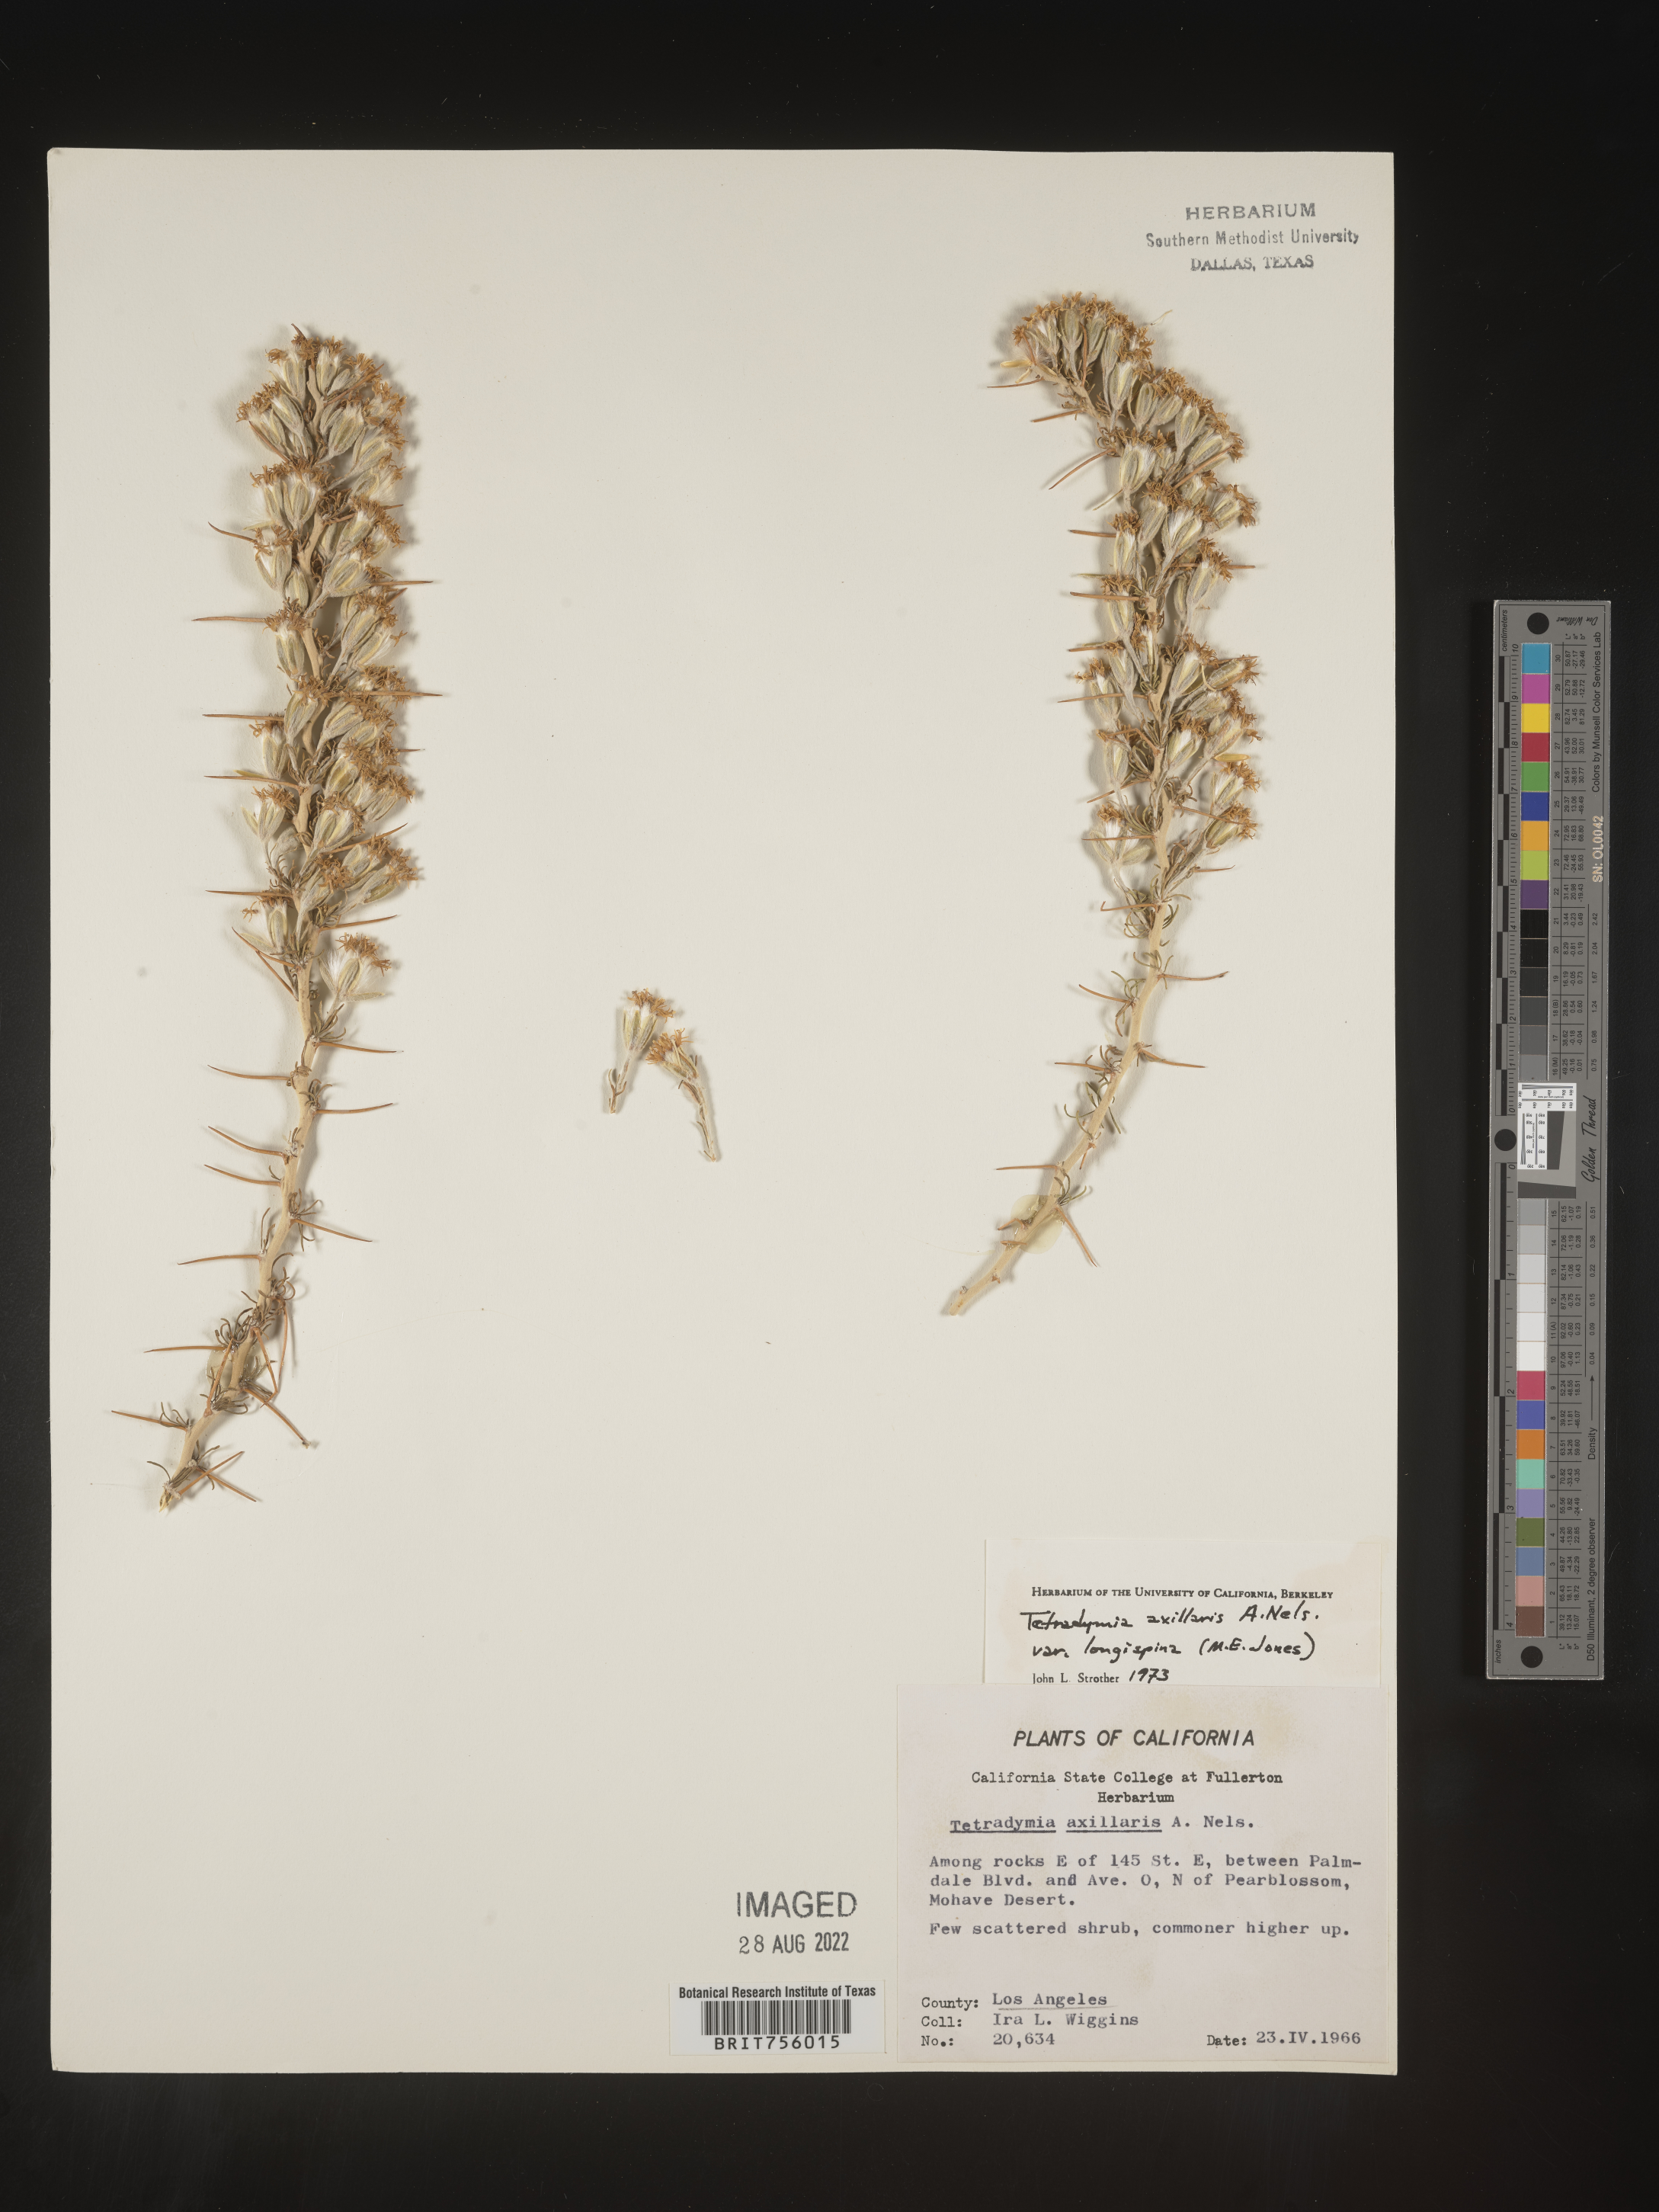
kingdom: Plantae
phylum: Tracheophyta
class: Magnoliopsida
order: Asterales
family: Asteraceae
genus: Tetradymia
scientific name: Tetradymia axillaris
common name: Long-spine horsebrush
